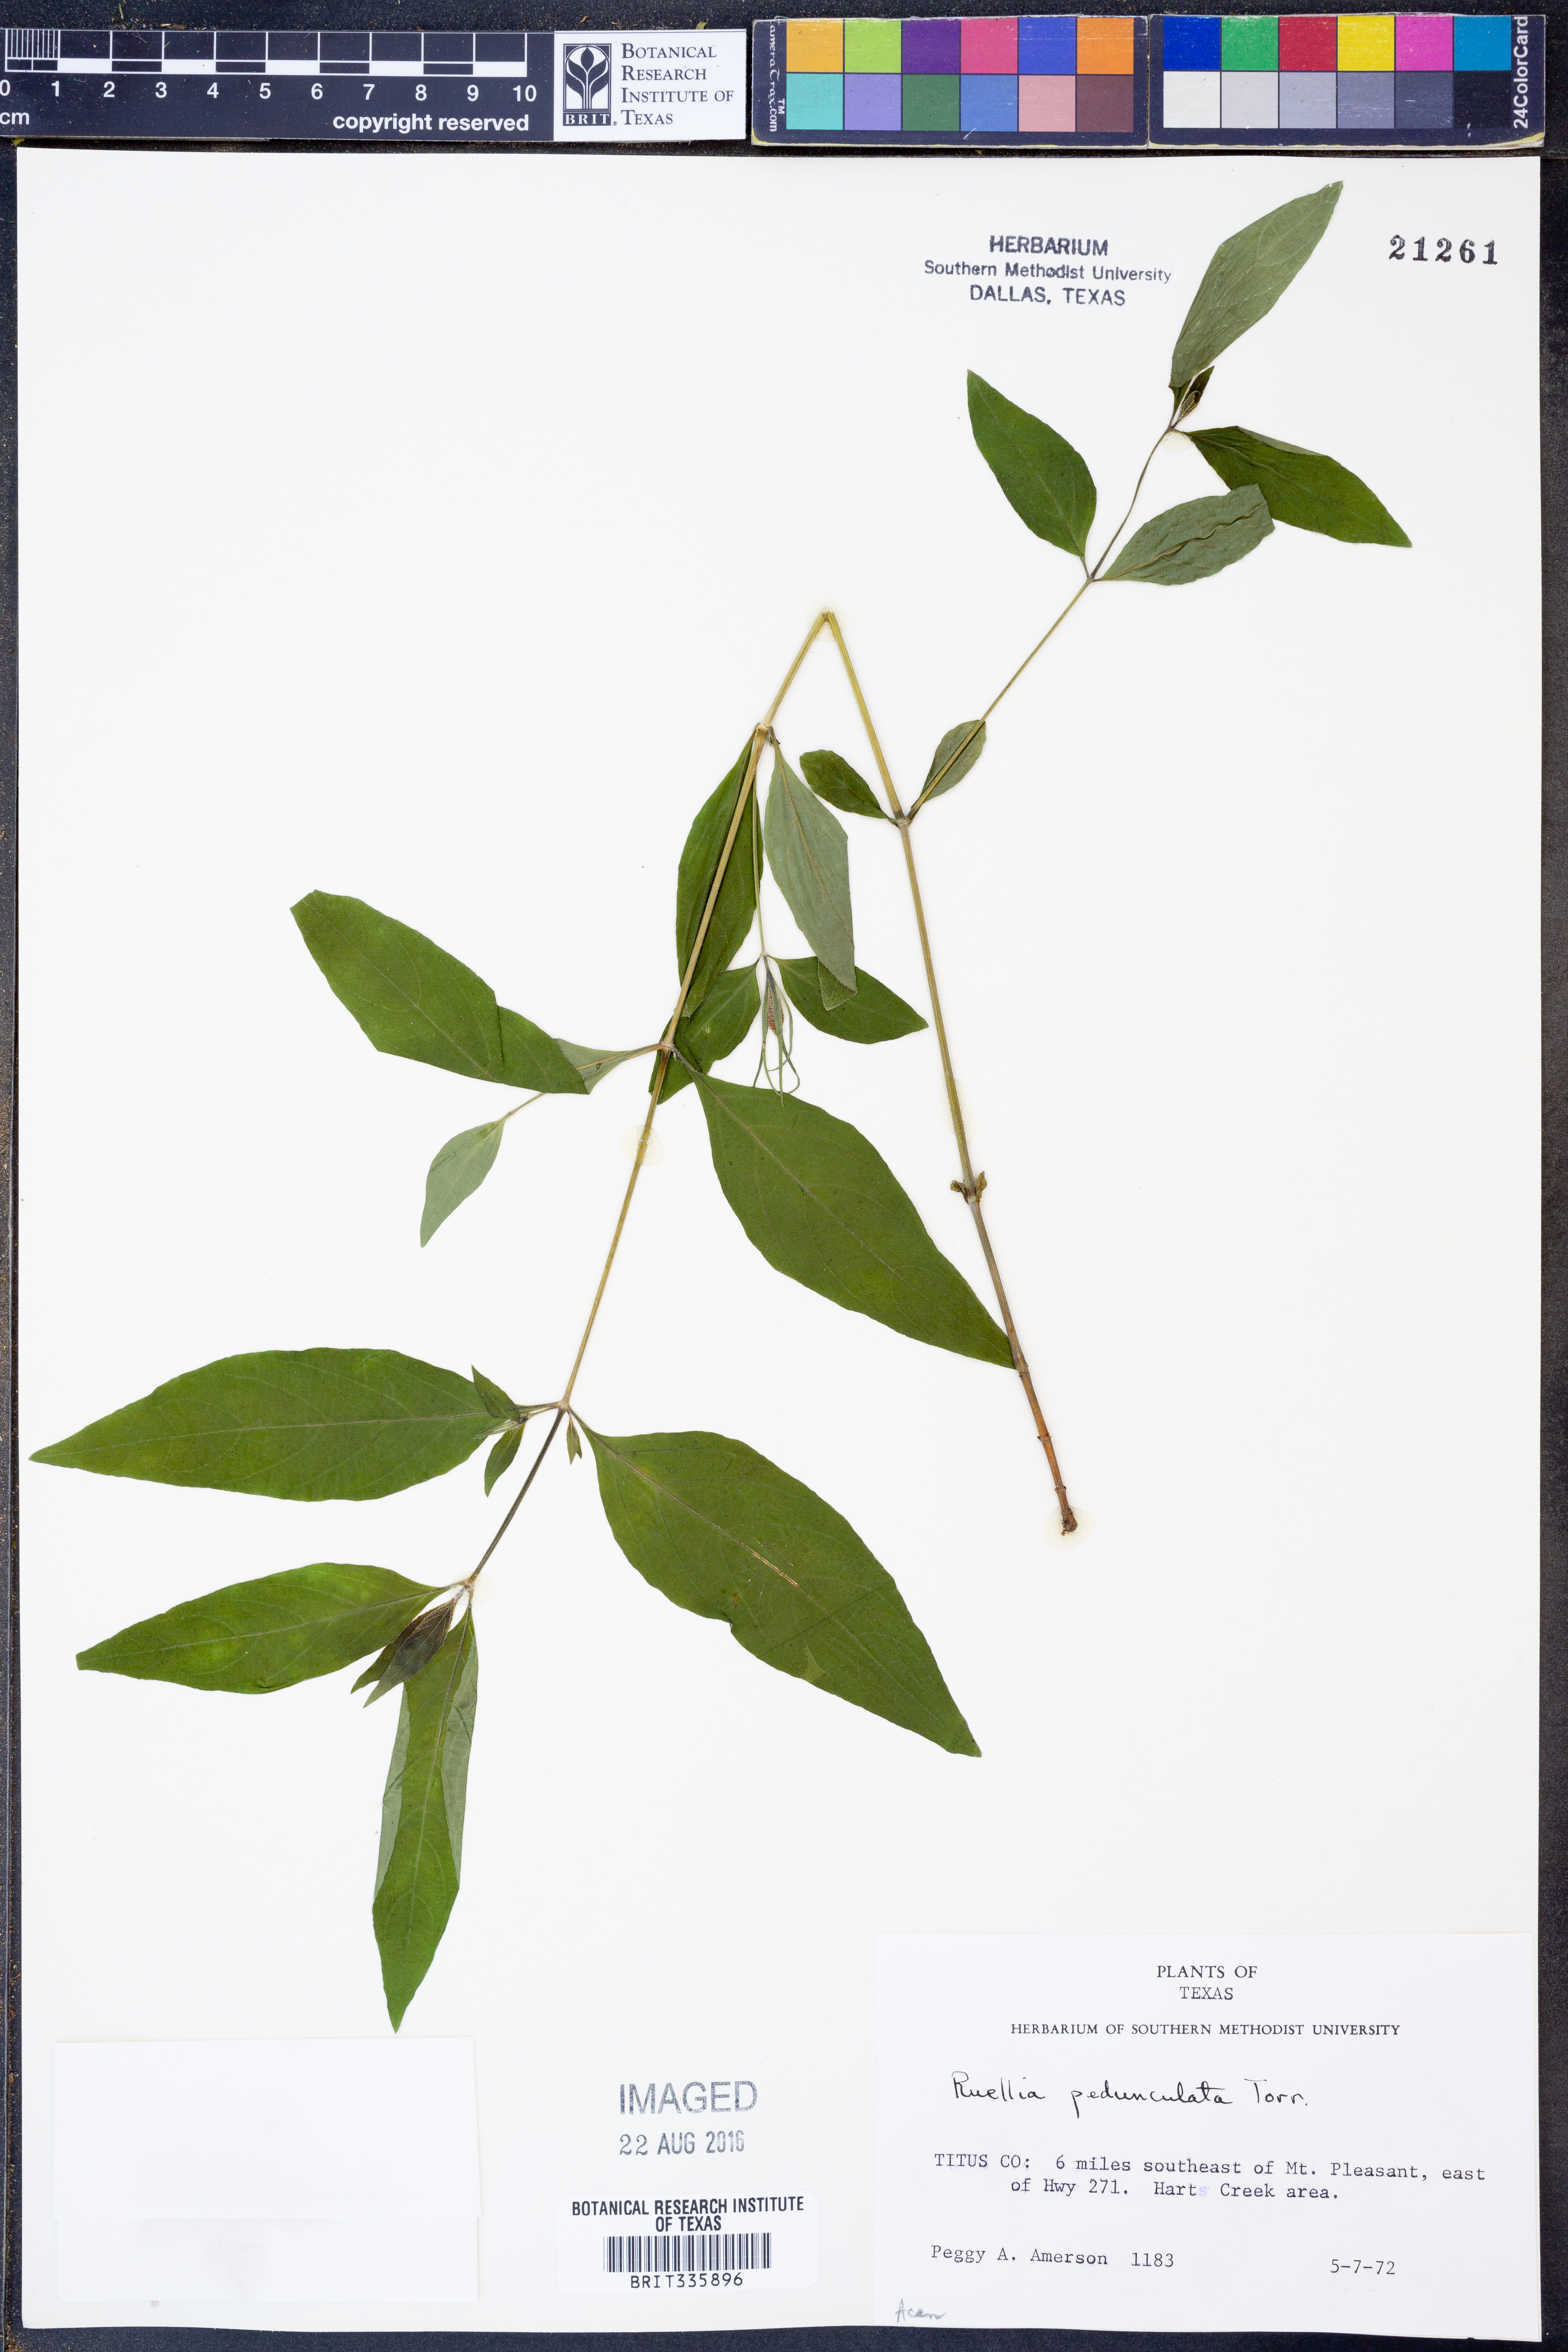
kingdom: Plantae
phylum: Tracheophyta
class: Magnoliopsida
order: Lamiales
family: Acanthaceae
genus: Ruellia
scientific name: Ruellia pedunculata
